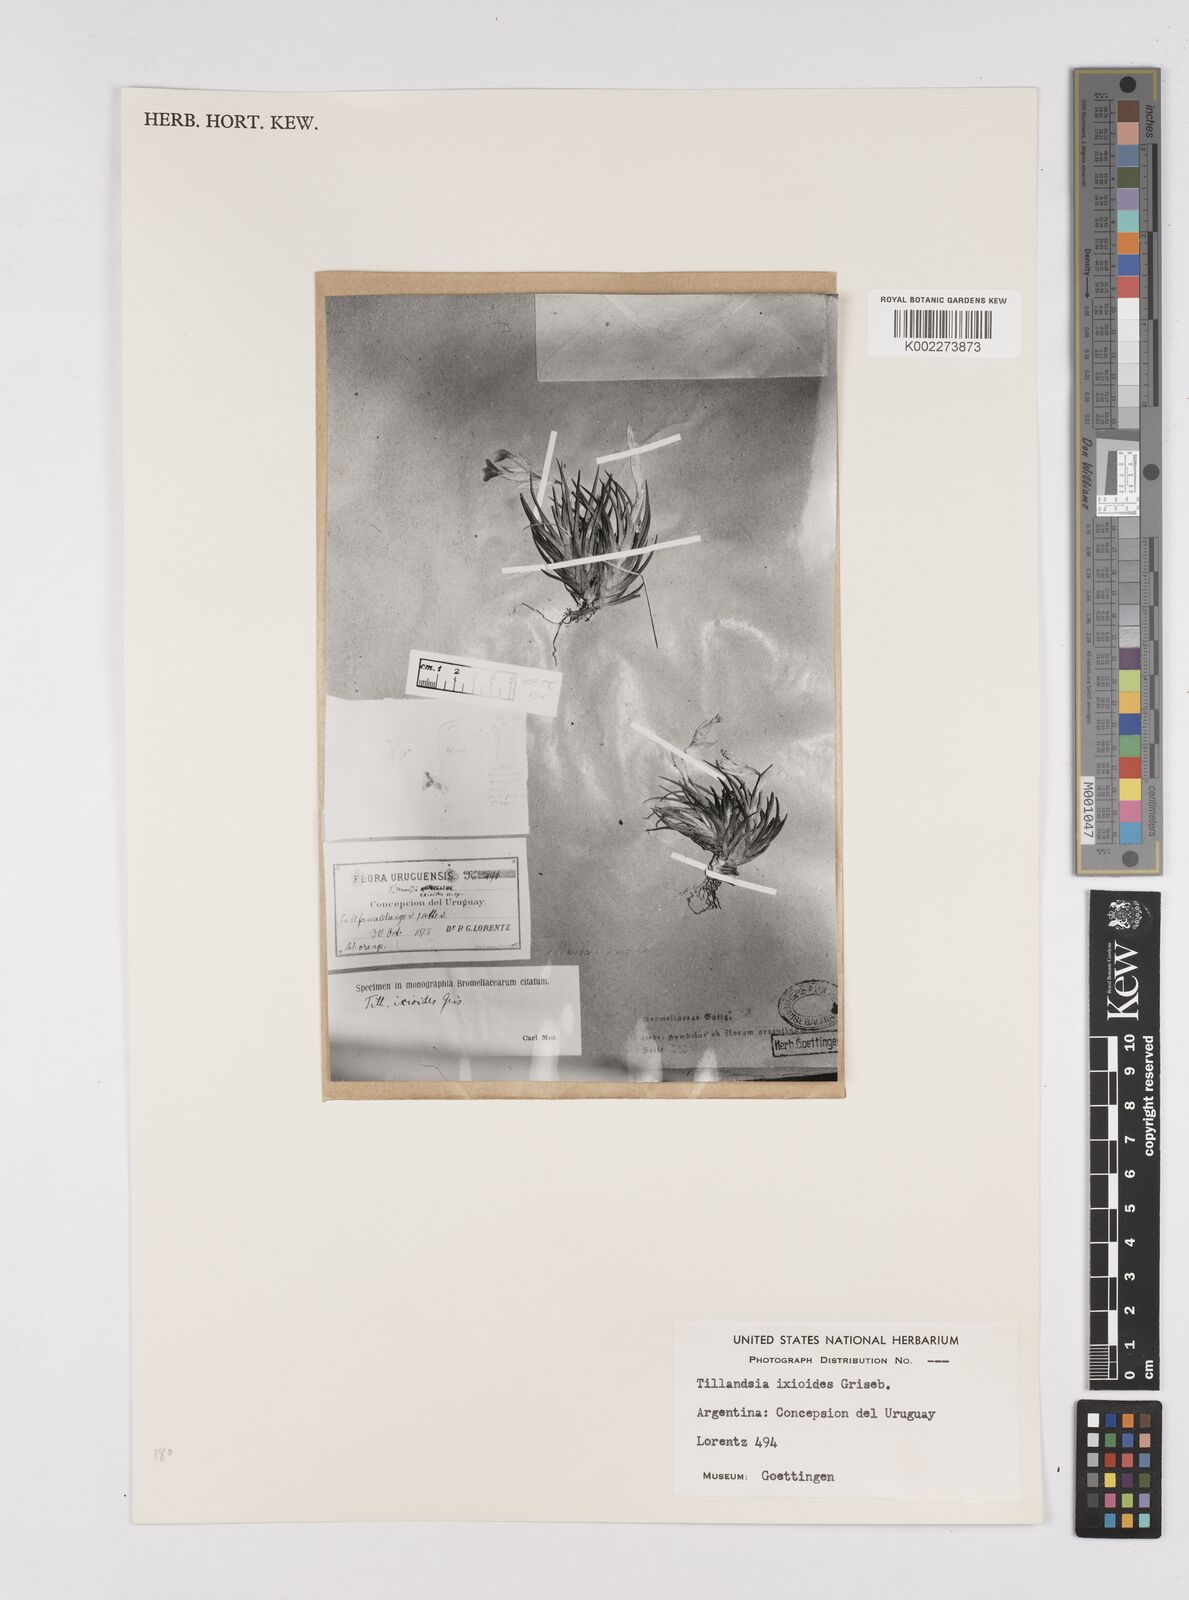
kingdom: Plantae
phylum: Tracheophyta
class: Liliopsida
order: Poales
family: Bromeliaceae
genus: Tillandsia
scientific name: Tillandsia ixioides
